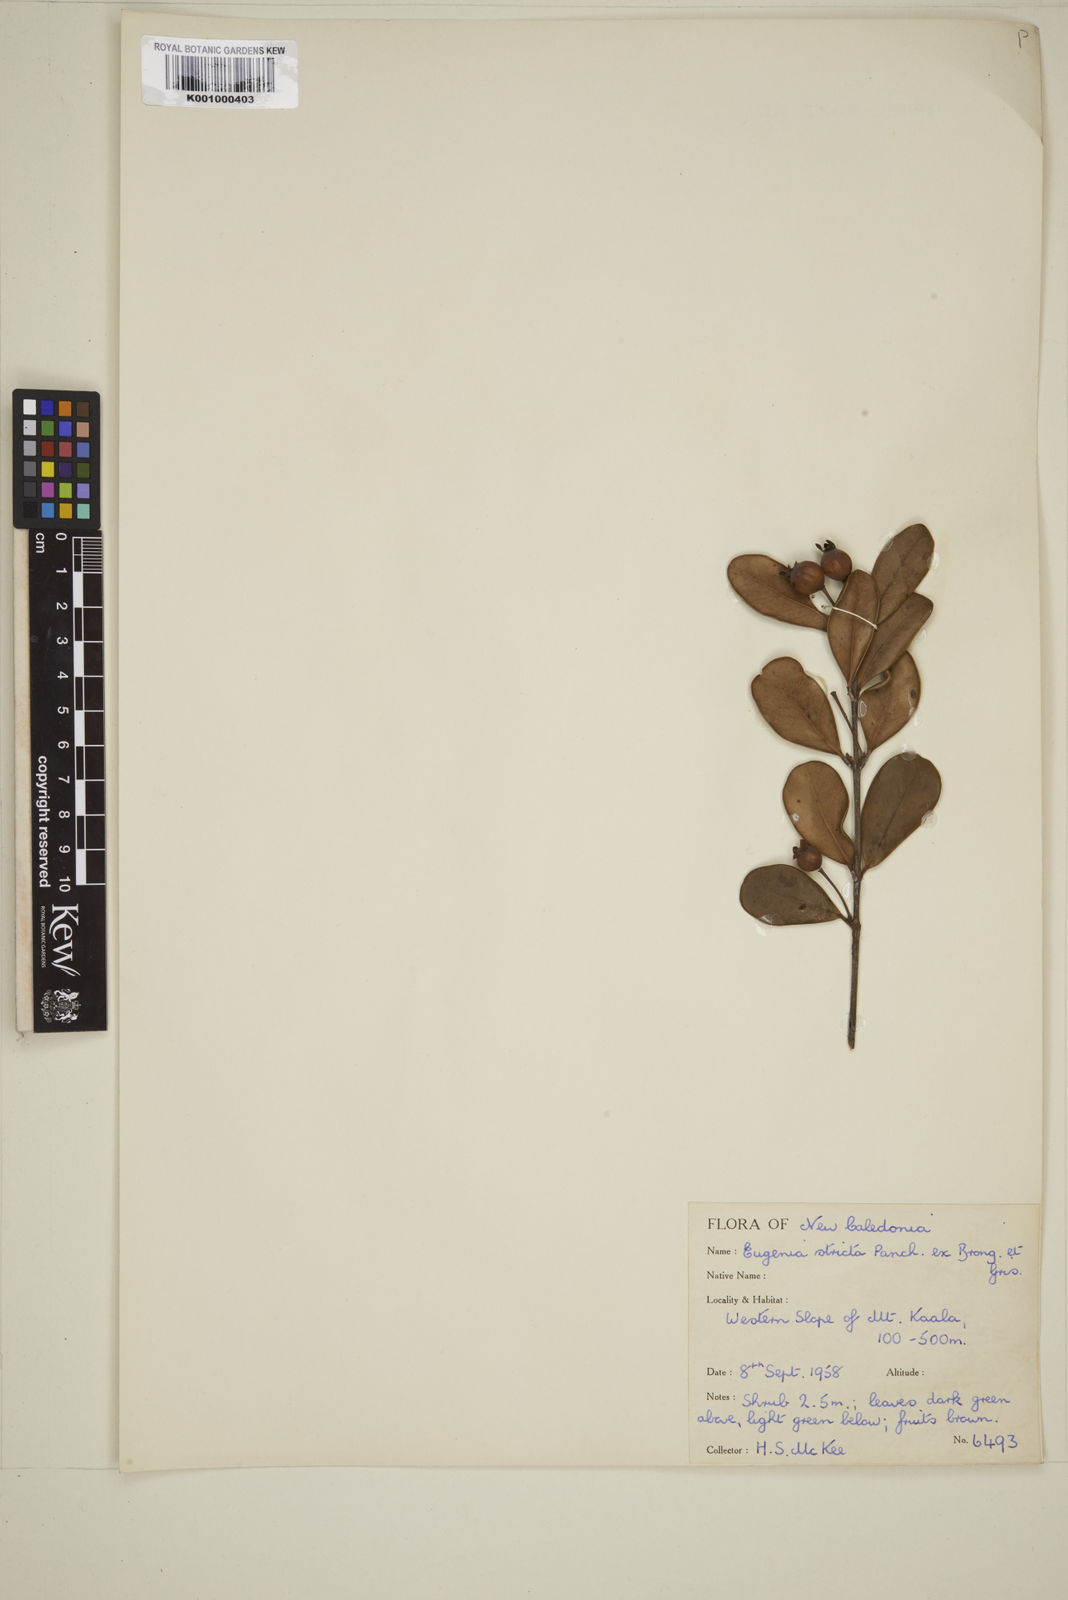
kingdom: Plantae
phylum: Tracheophyta
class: Magnoliopsida
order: Myrtales
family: Myrtaceae
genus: Austromyrtus
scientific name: Austromyrtus stricta
